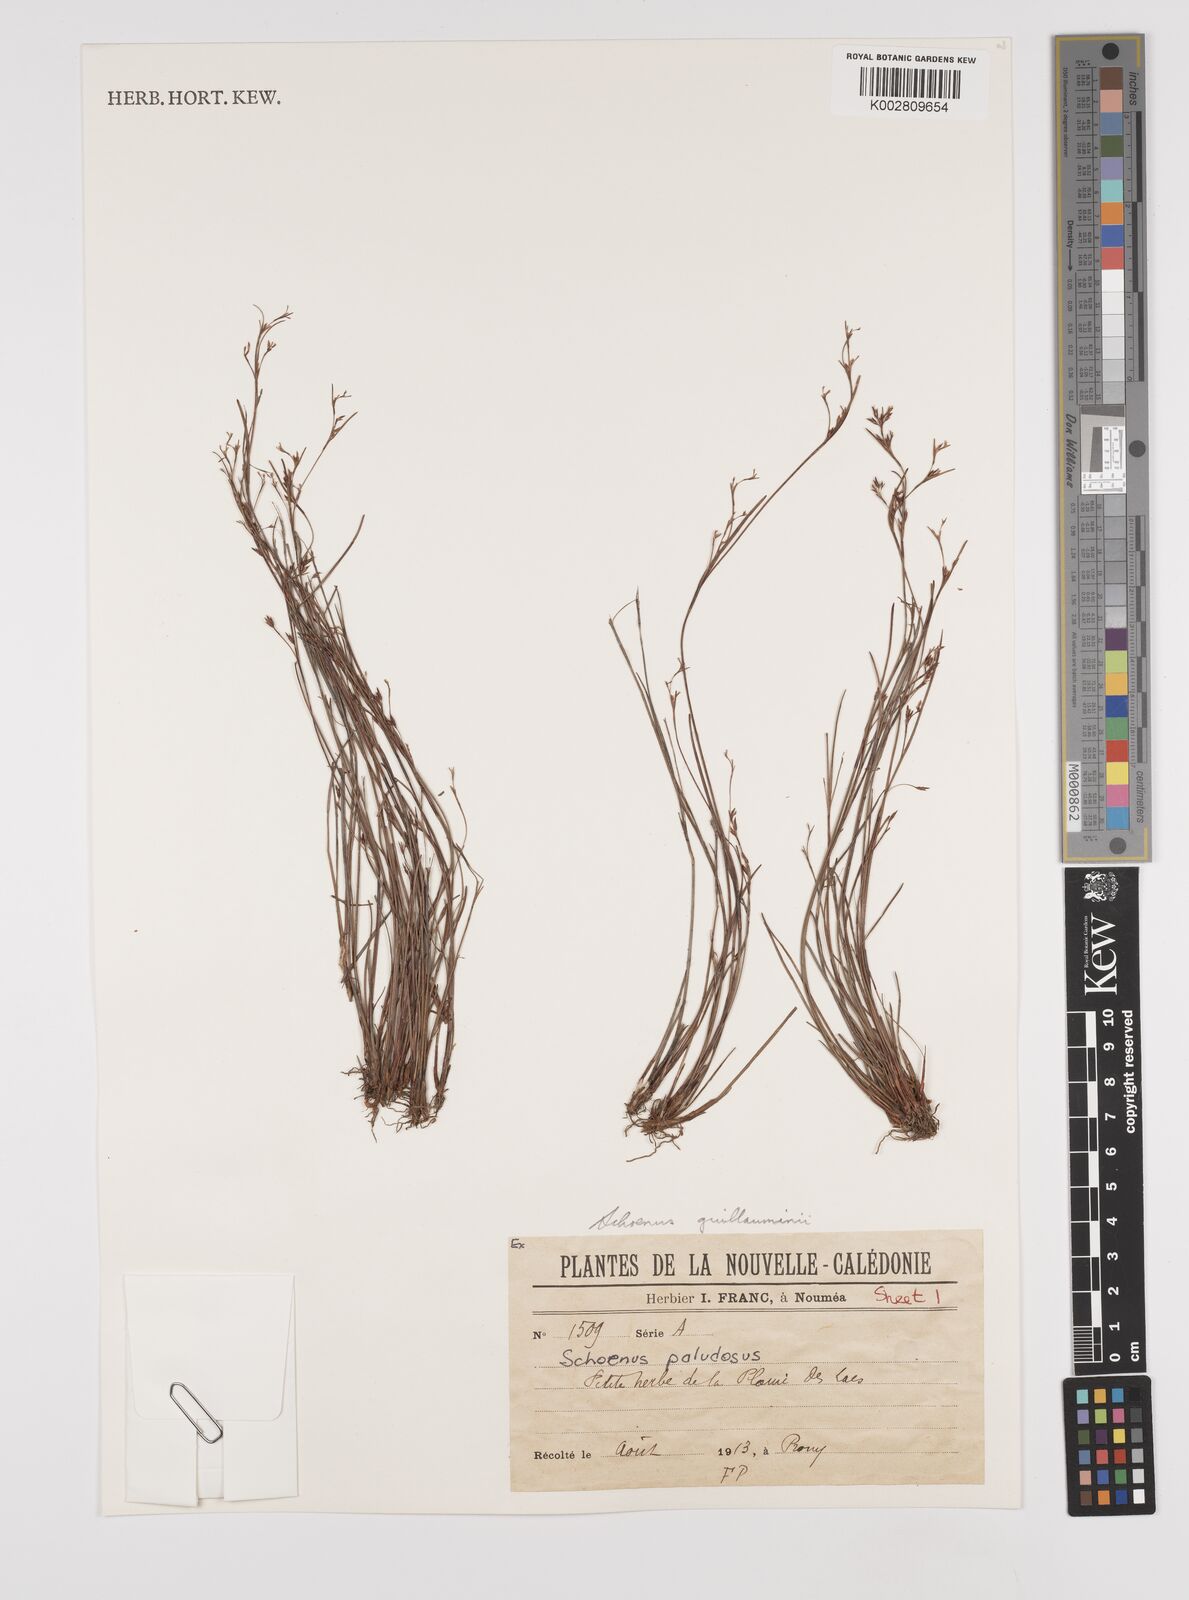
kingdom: Plantae
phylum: Tracheophyta
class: Liliopsida
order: Poales
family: Cyperaceae
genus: Anthelepis
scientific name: Anthelepis guillauminii
